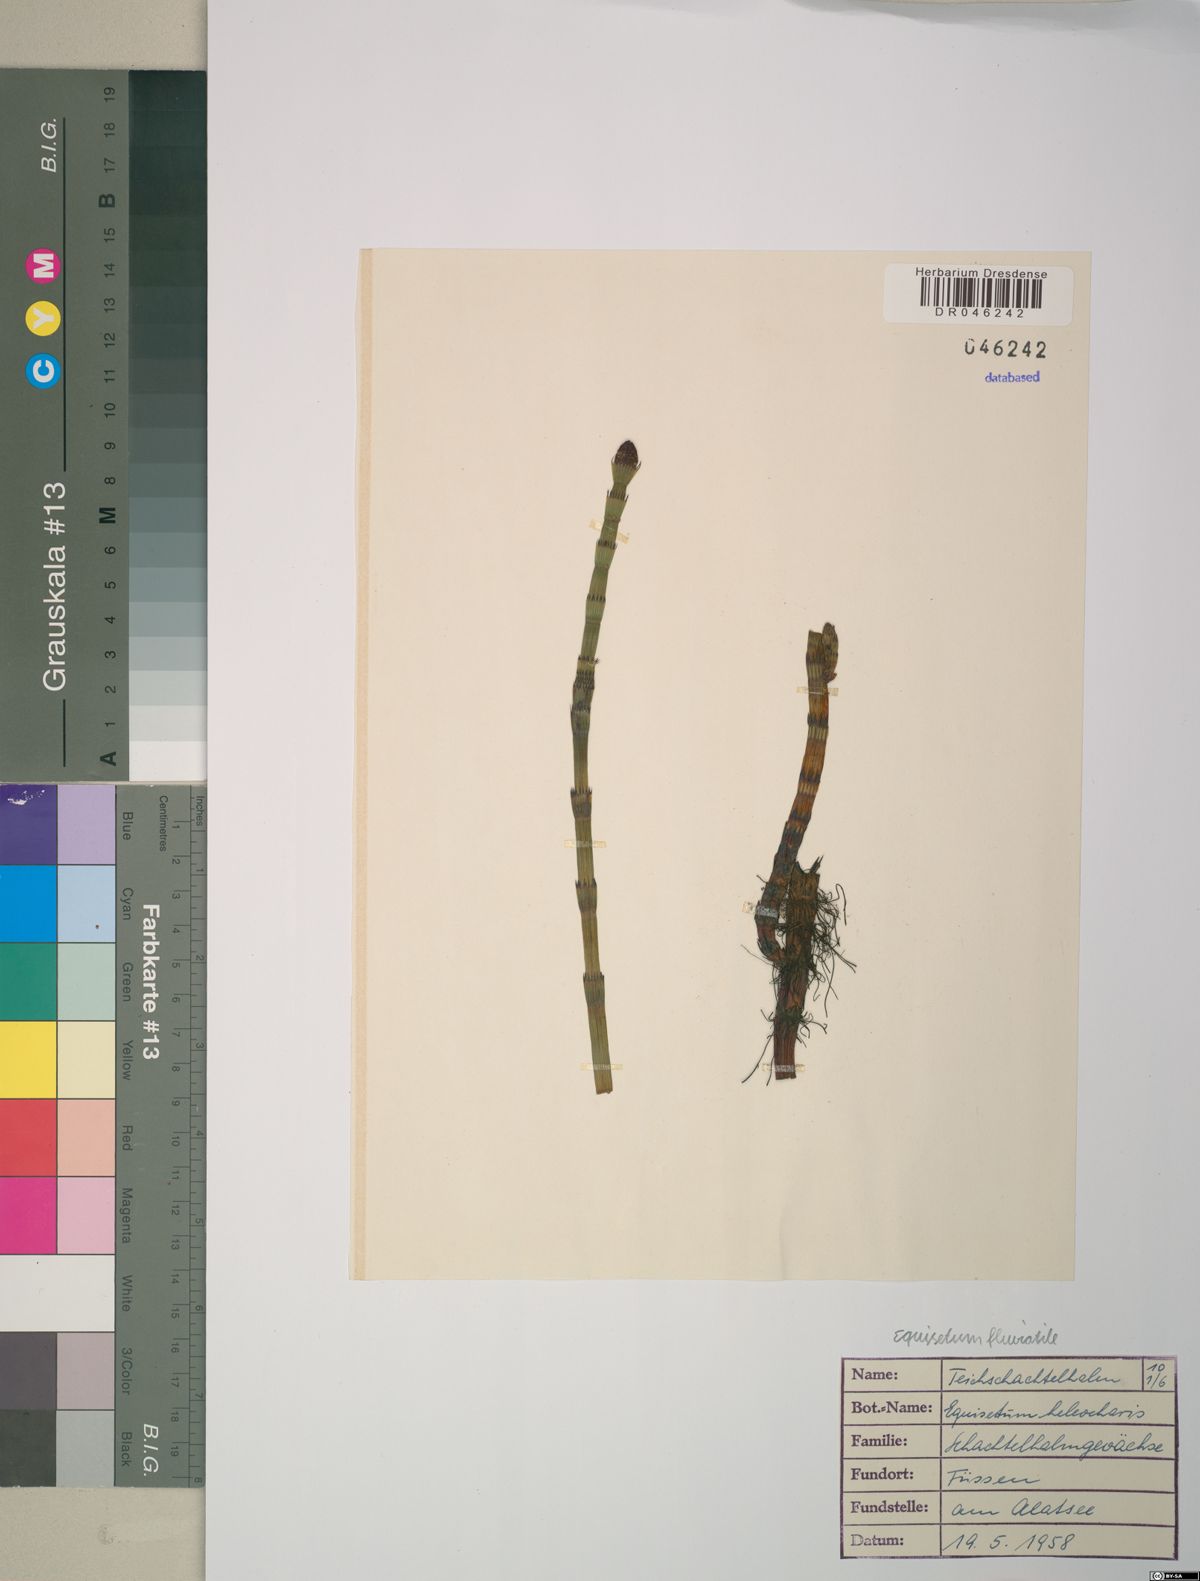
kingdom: Plantae
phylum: Tracheophyta
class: Polypodiopsida
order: Equisetales
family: Equisetaceae
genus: Equisetum
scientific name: Equisetum fluviatile
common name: Water horsetail
